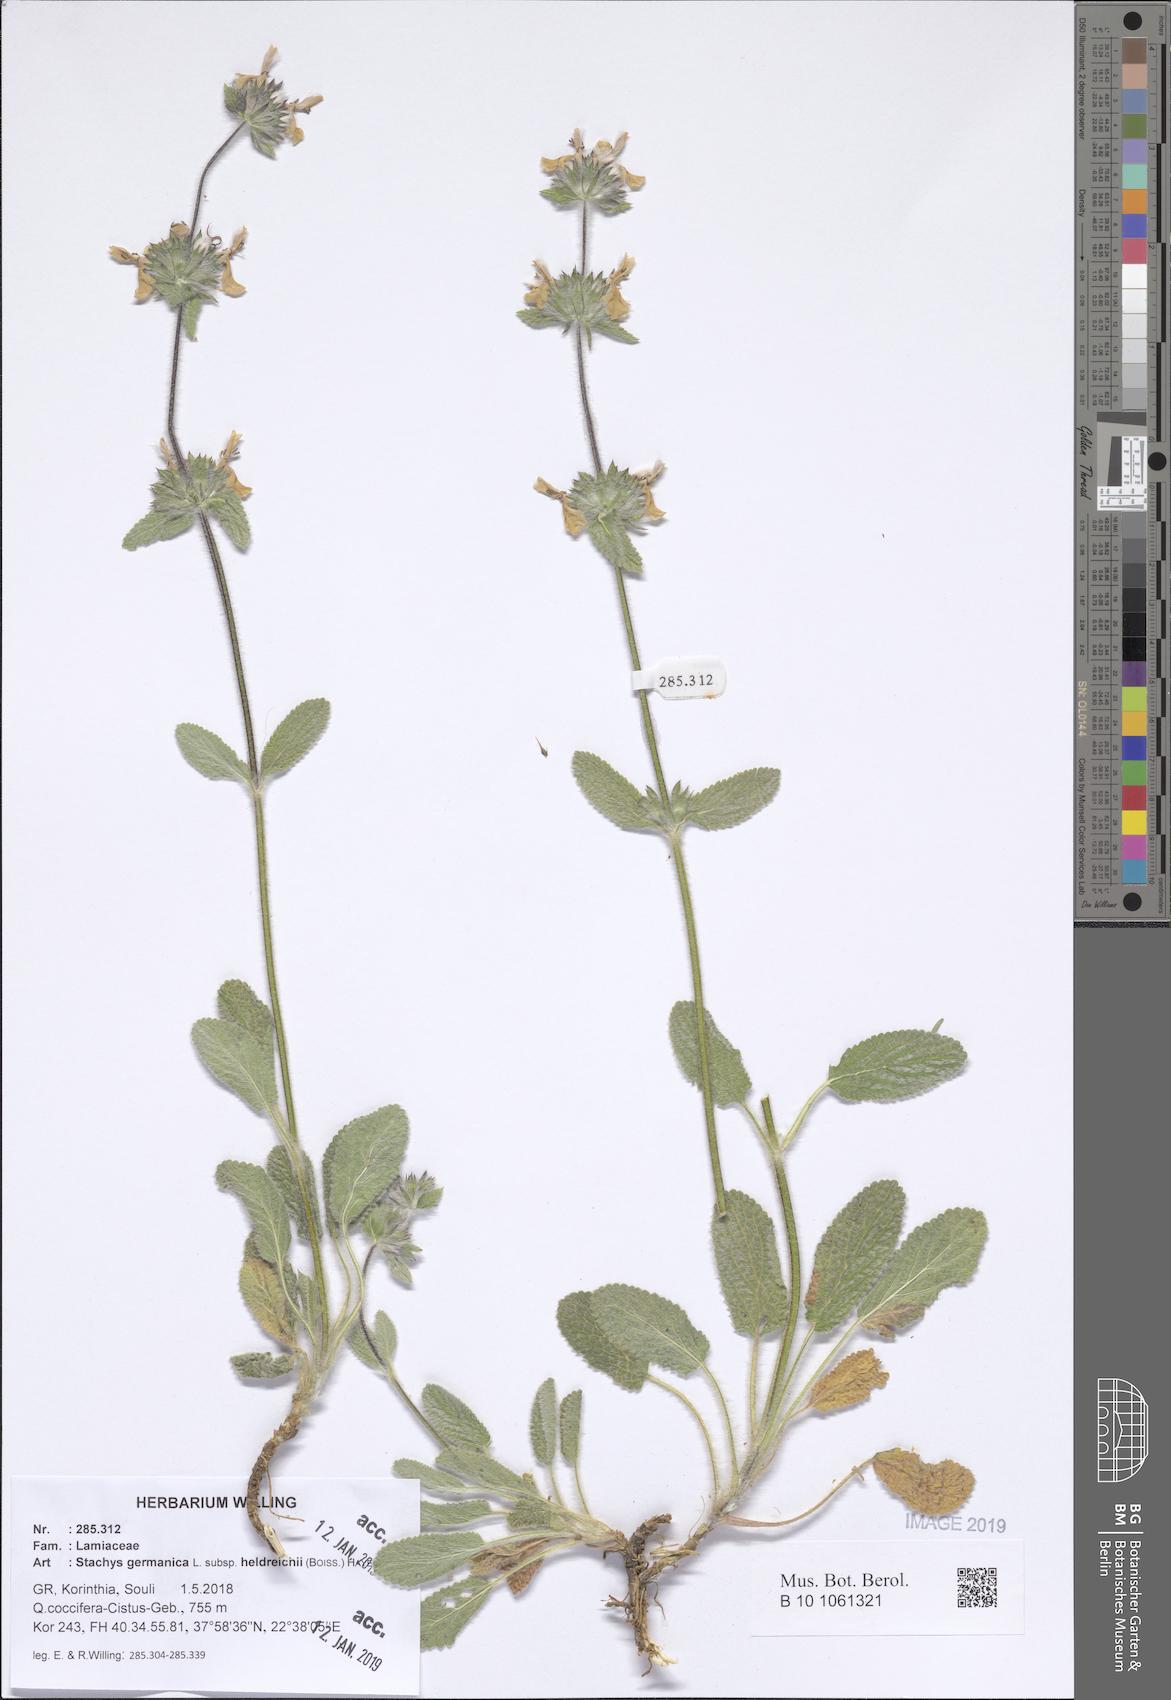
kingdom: Plantae
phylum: Tracheophyta
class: Magnoliopsida
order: Lamiales
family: Lamiaceae
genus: Stachys
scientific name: Stachys germanica
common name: Downy woundwort
